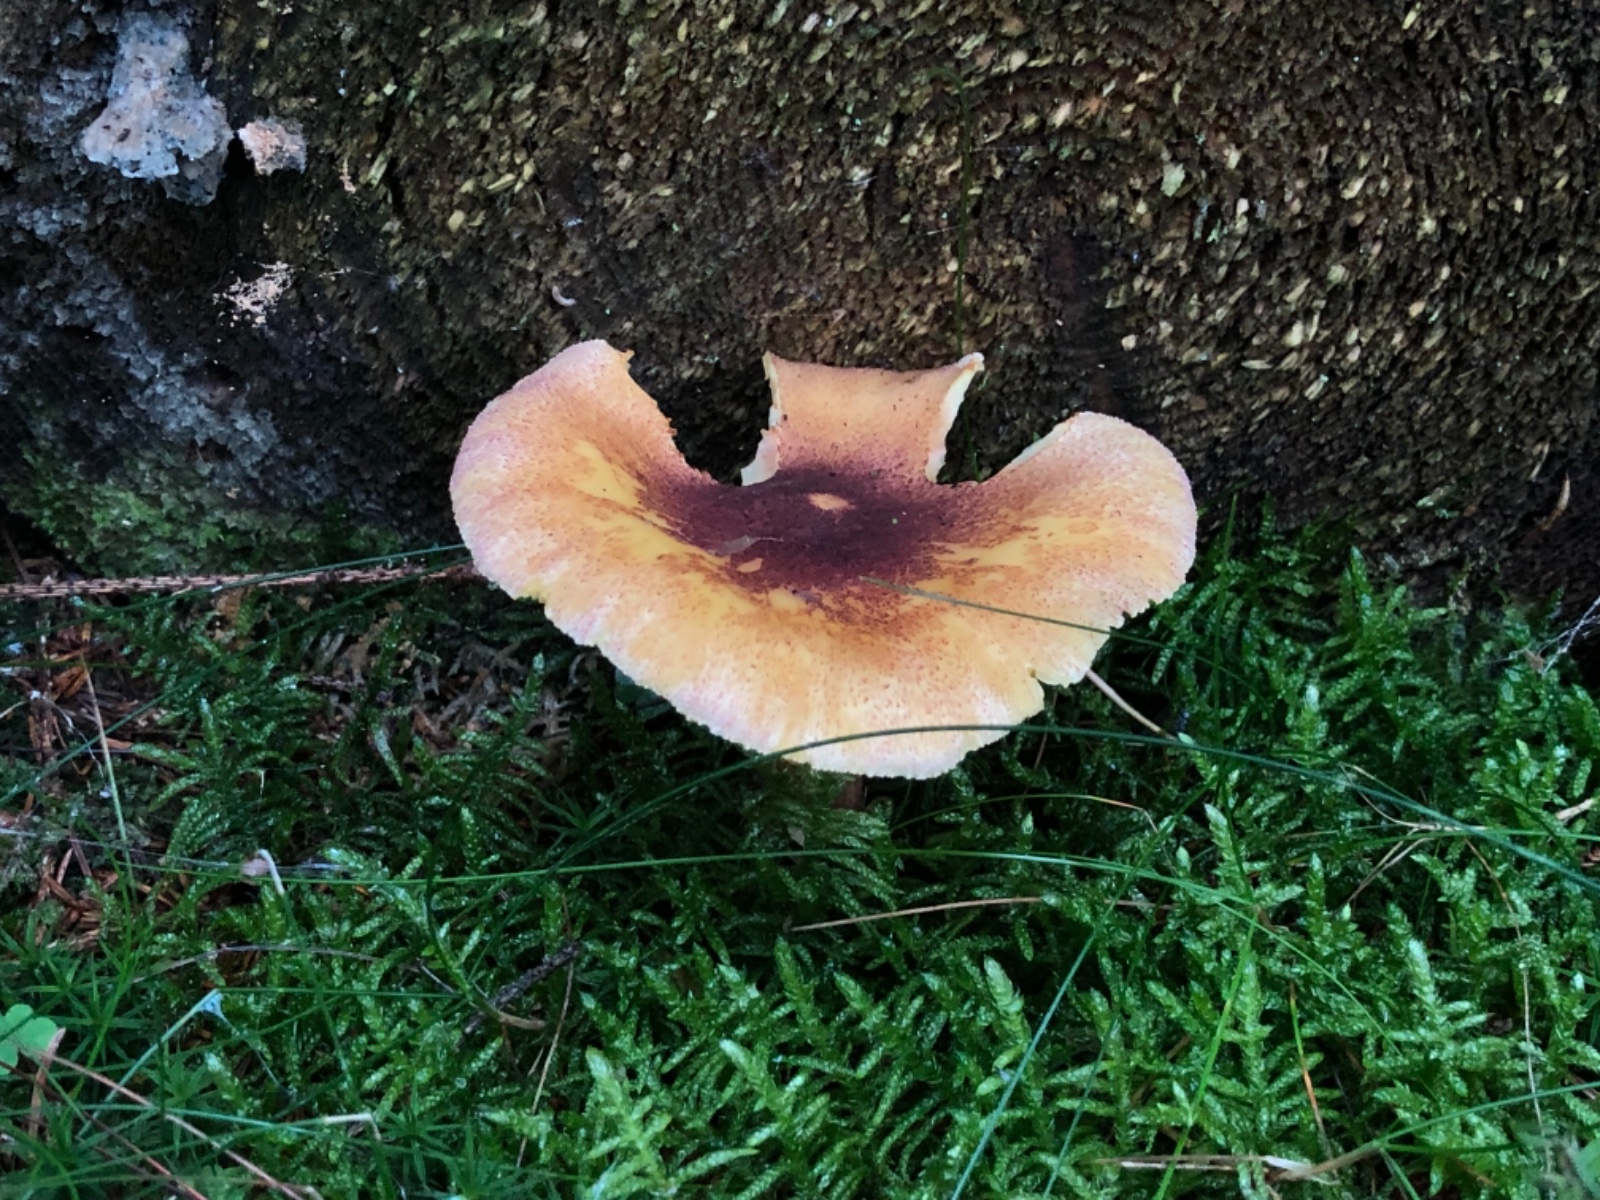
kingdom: Fungi
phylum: Basidiomycota
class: Agaricomycetes
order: Agaricales
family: Tricholomataceae
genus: Tricholomopsis
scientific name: Tricholomopsis rutilans
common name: purpur-væbnerhat
